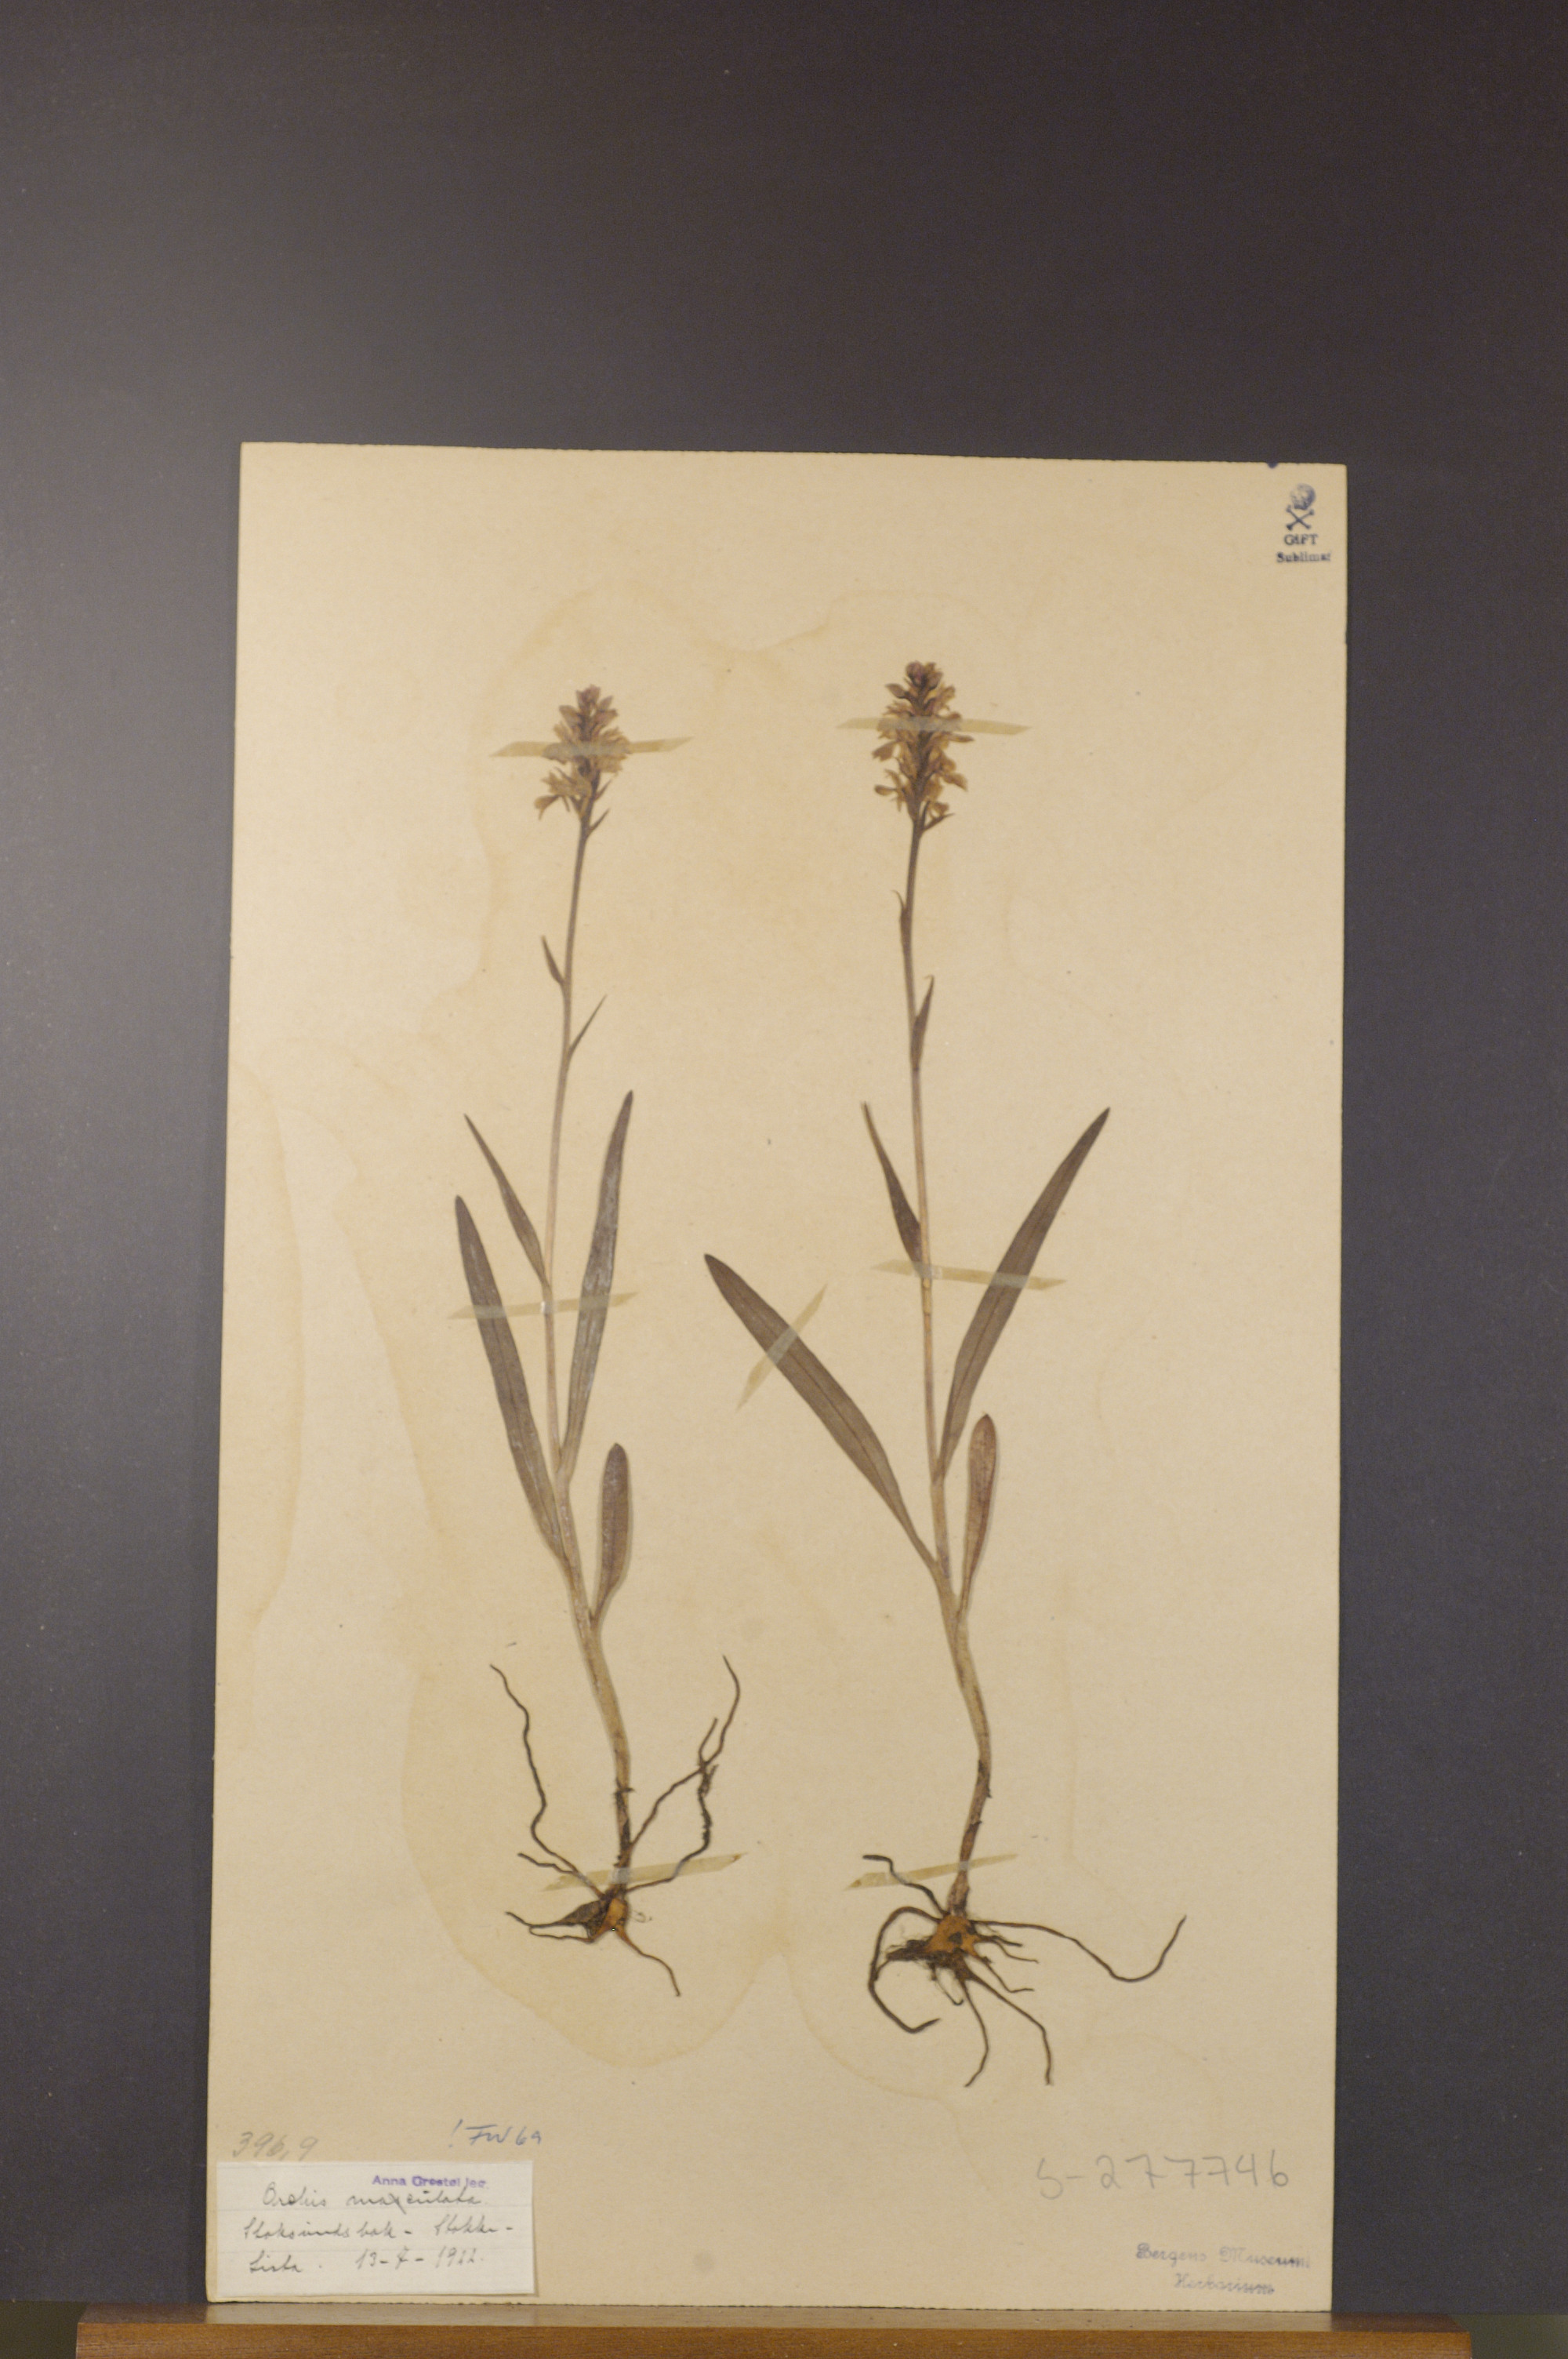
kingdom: Plantae
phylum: Tracheophyta
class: Liliopsida
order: Asparagales
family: Orchidaceae
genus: Dactylorhiza
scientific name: Dactylorhiza maculata
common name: Heath spotted-orchid
